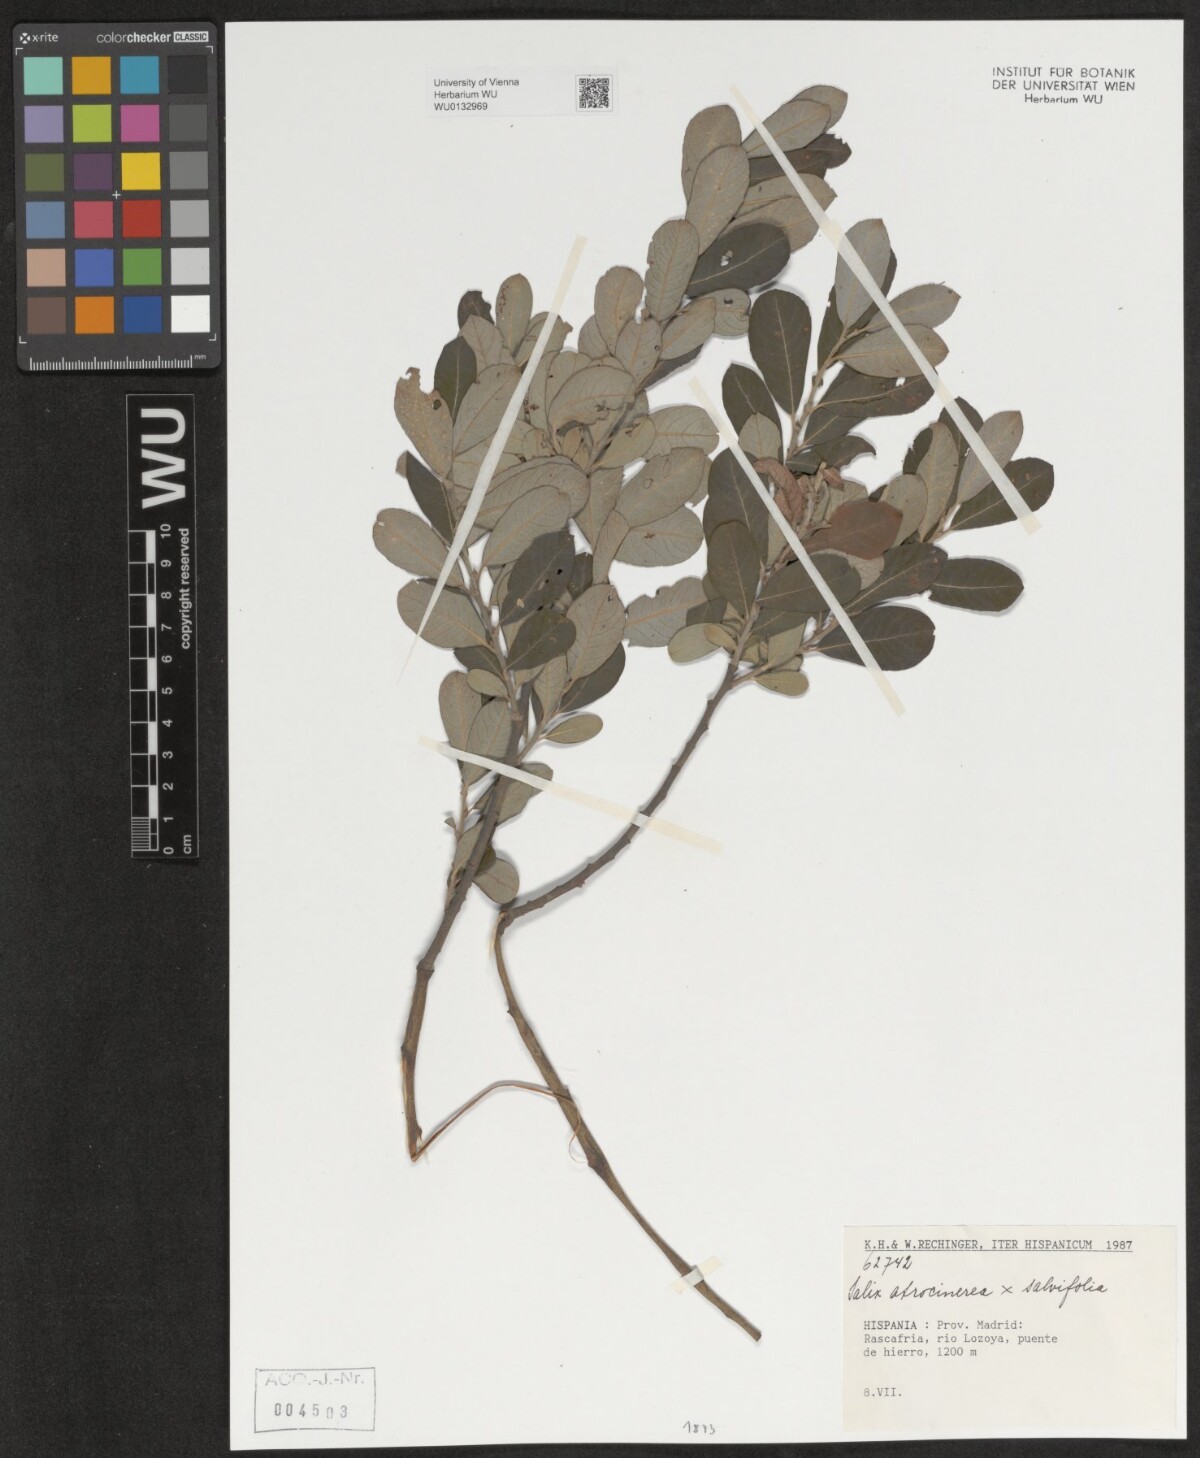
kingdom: Plantae
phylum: Tracheophyta
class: Magnoliopsida
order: Malpighiales
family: Salicaceae
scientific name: Salicaceae
